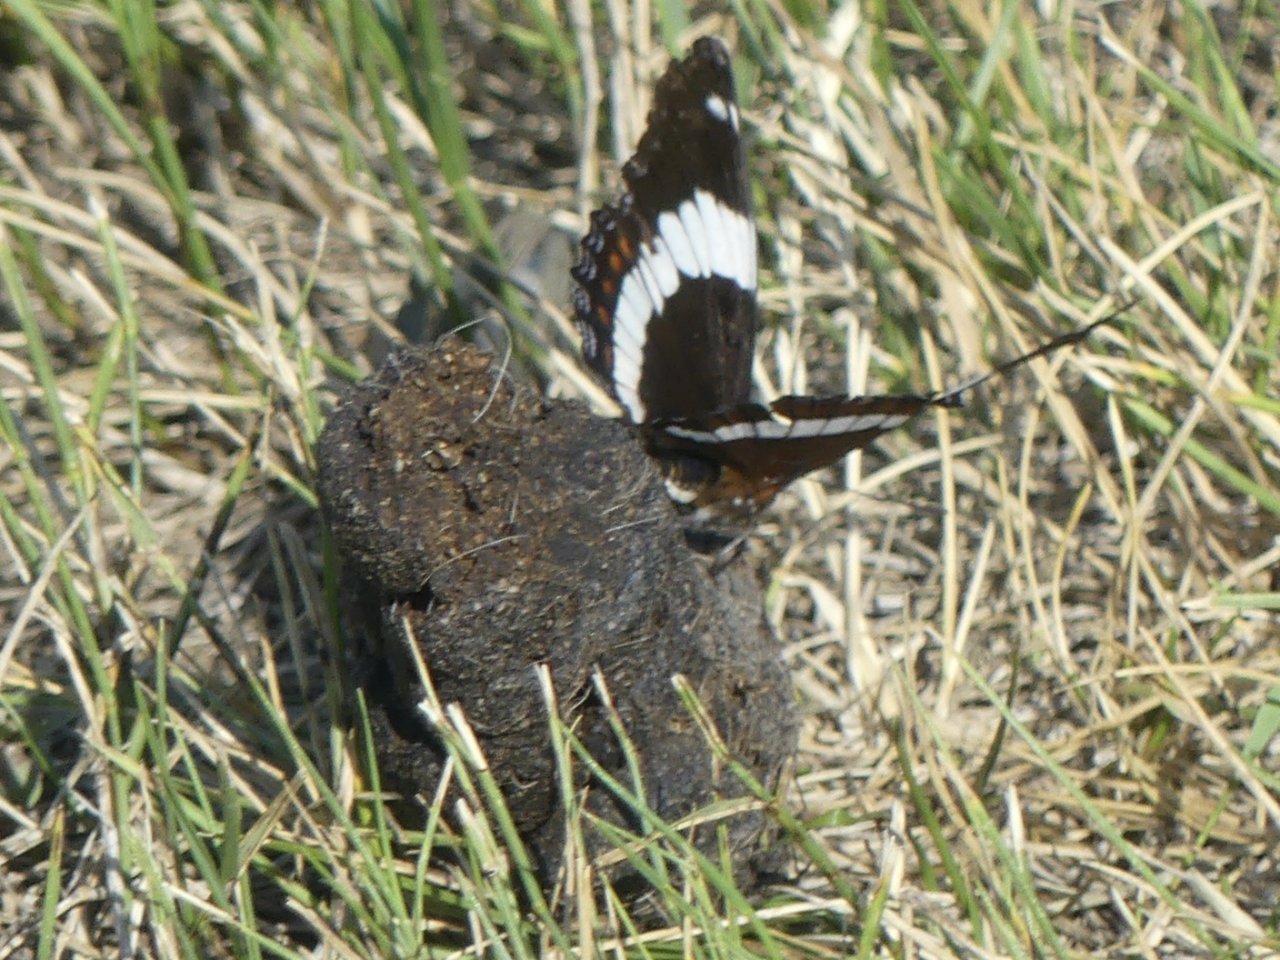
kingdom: Animalia
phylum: Arthropoda
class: Insecta
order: Lepidoptera
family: Nymphalidae
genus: Limenitis
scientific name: Limenitis arthemis
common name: Red-spotted Admiral
